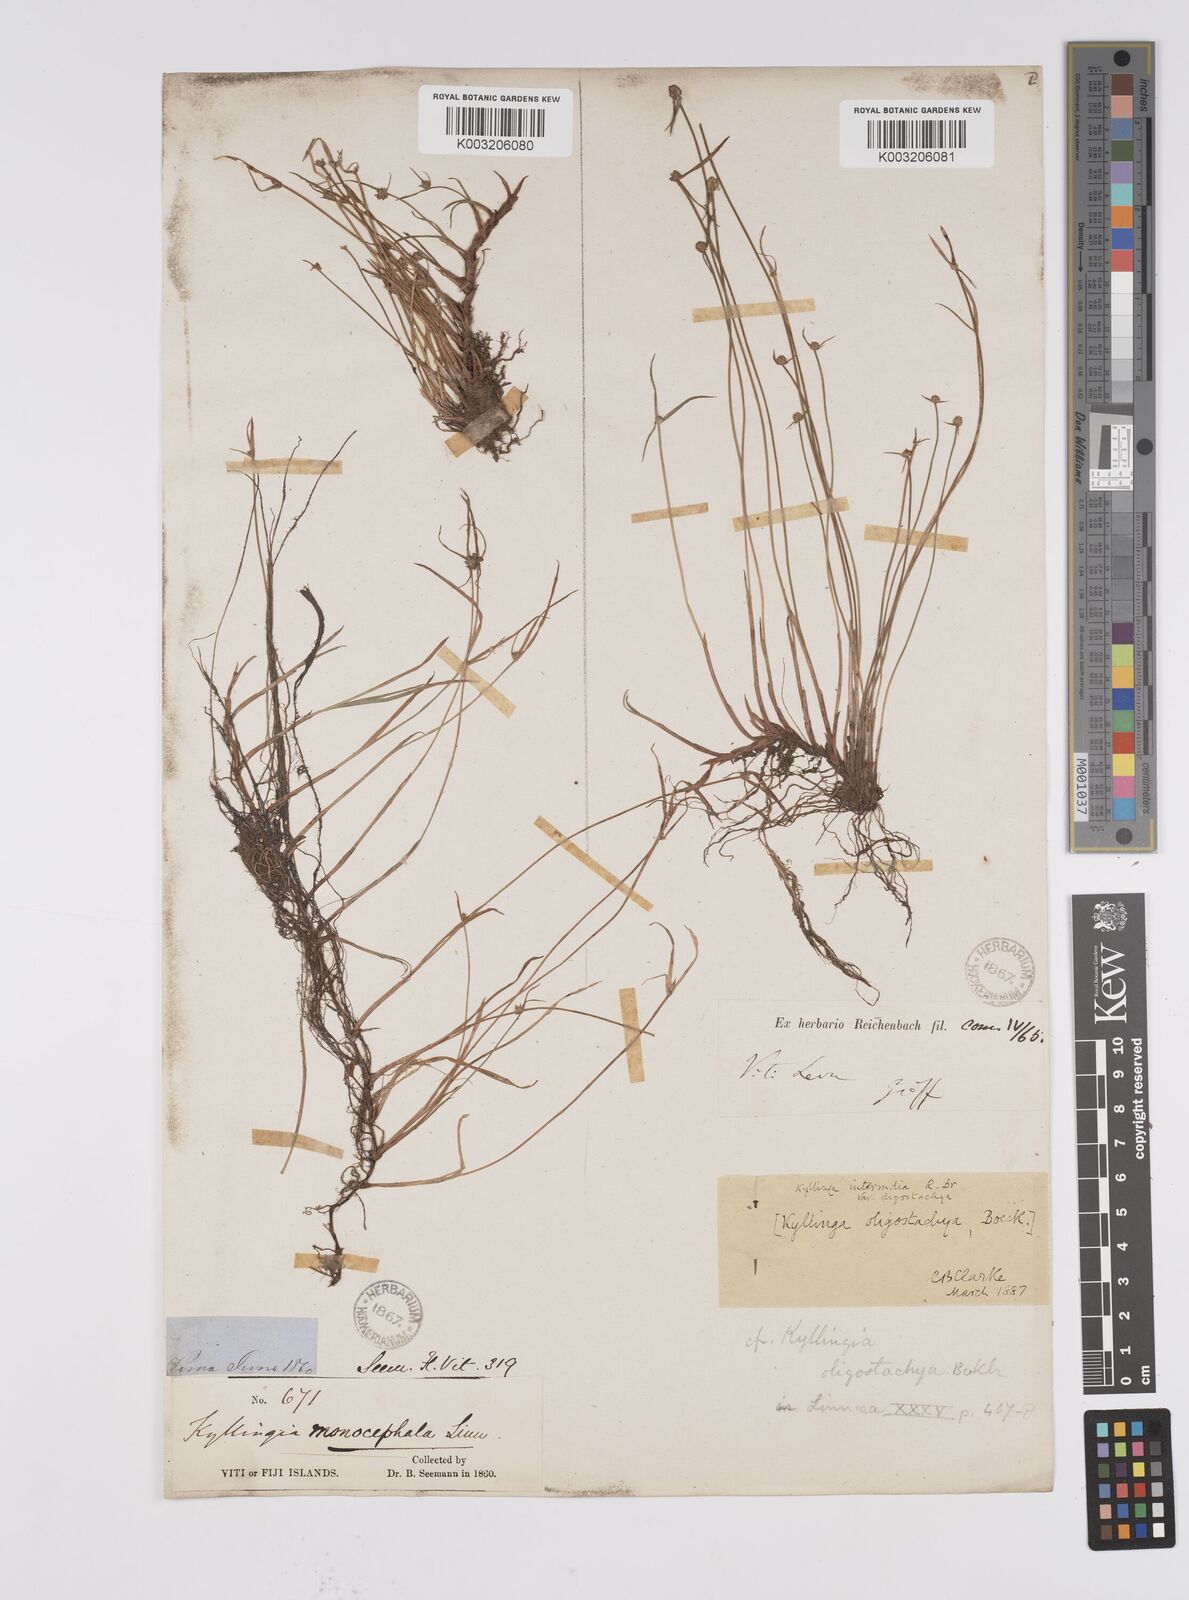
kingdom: Plantae
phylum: Tracheophyta
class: Liliopsida
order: Poales
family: Cyperaceae
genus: Cyperus
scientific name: Cyperus brevifolius
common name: Globe kyllinga
